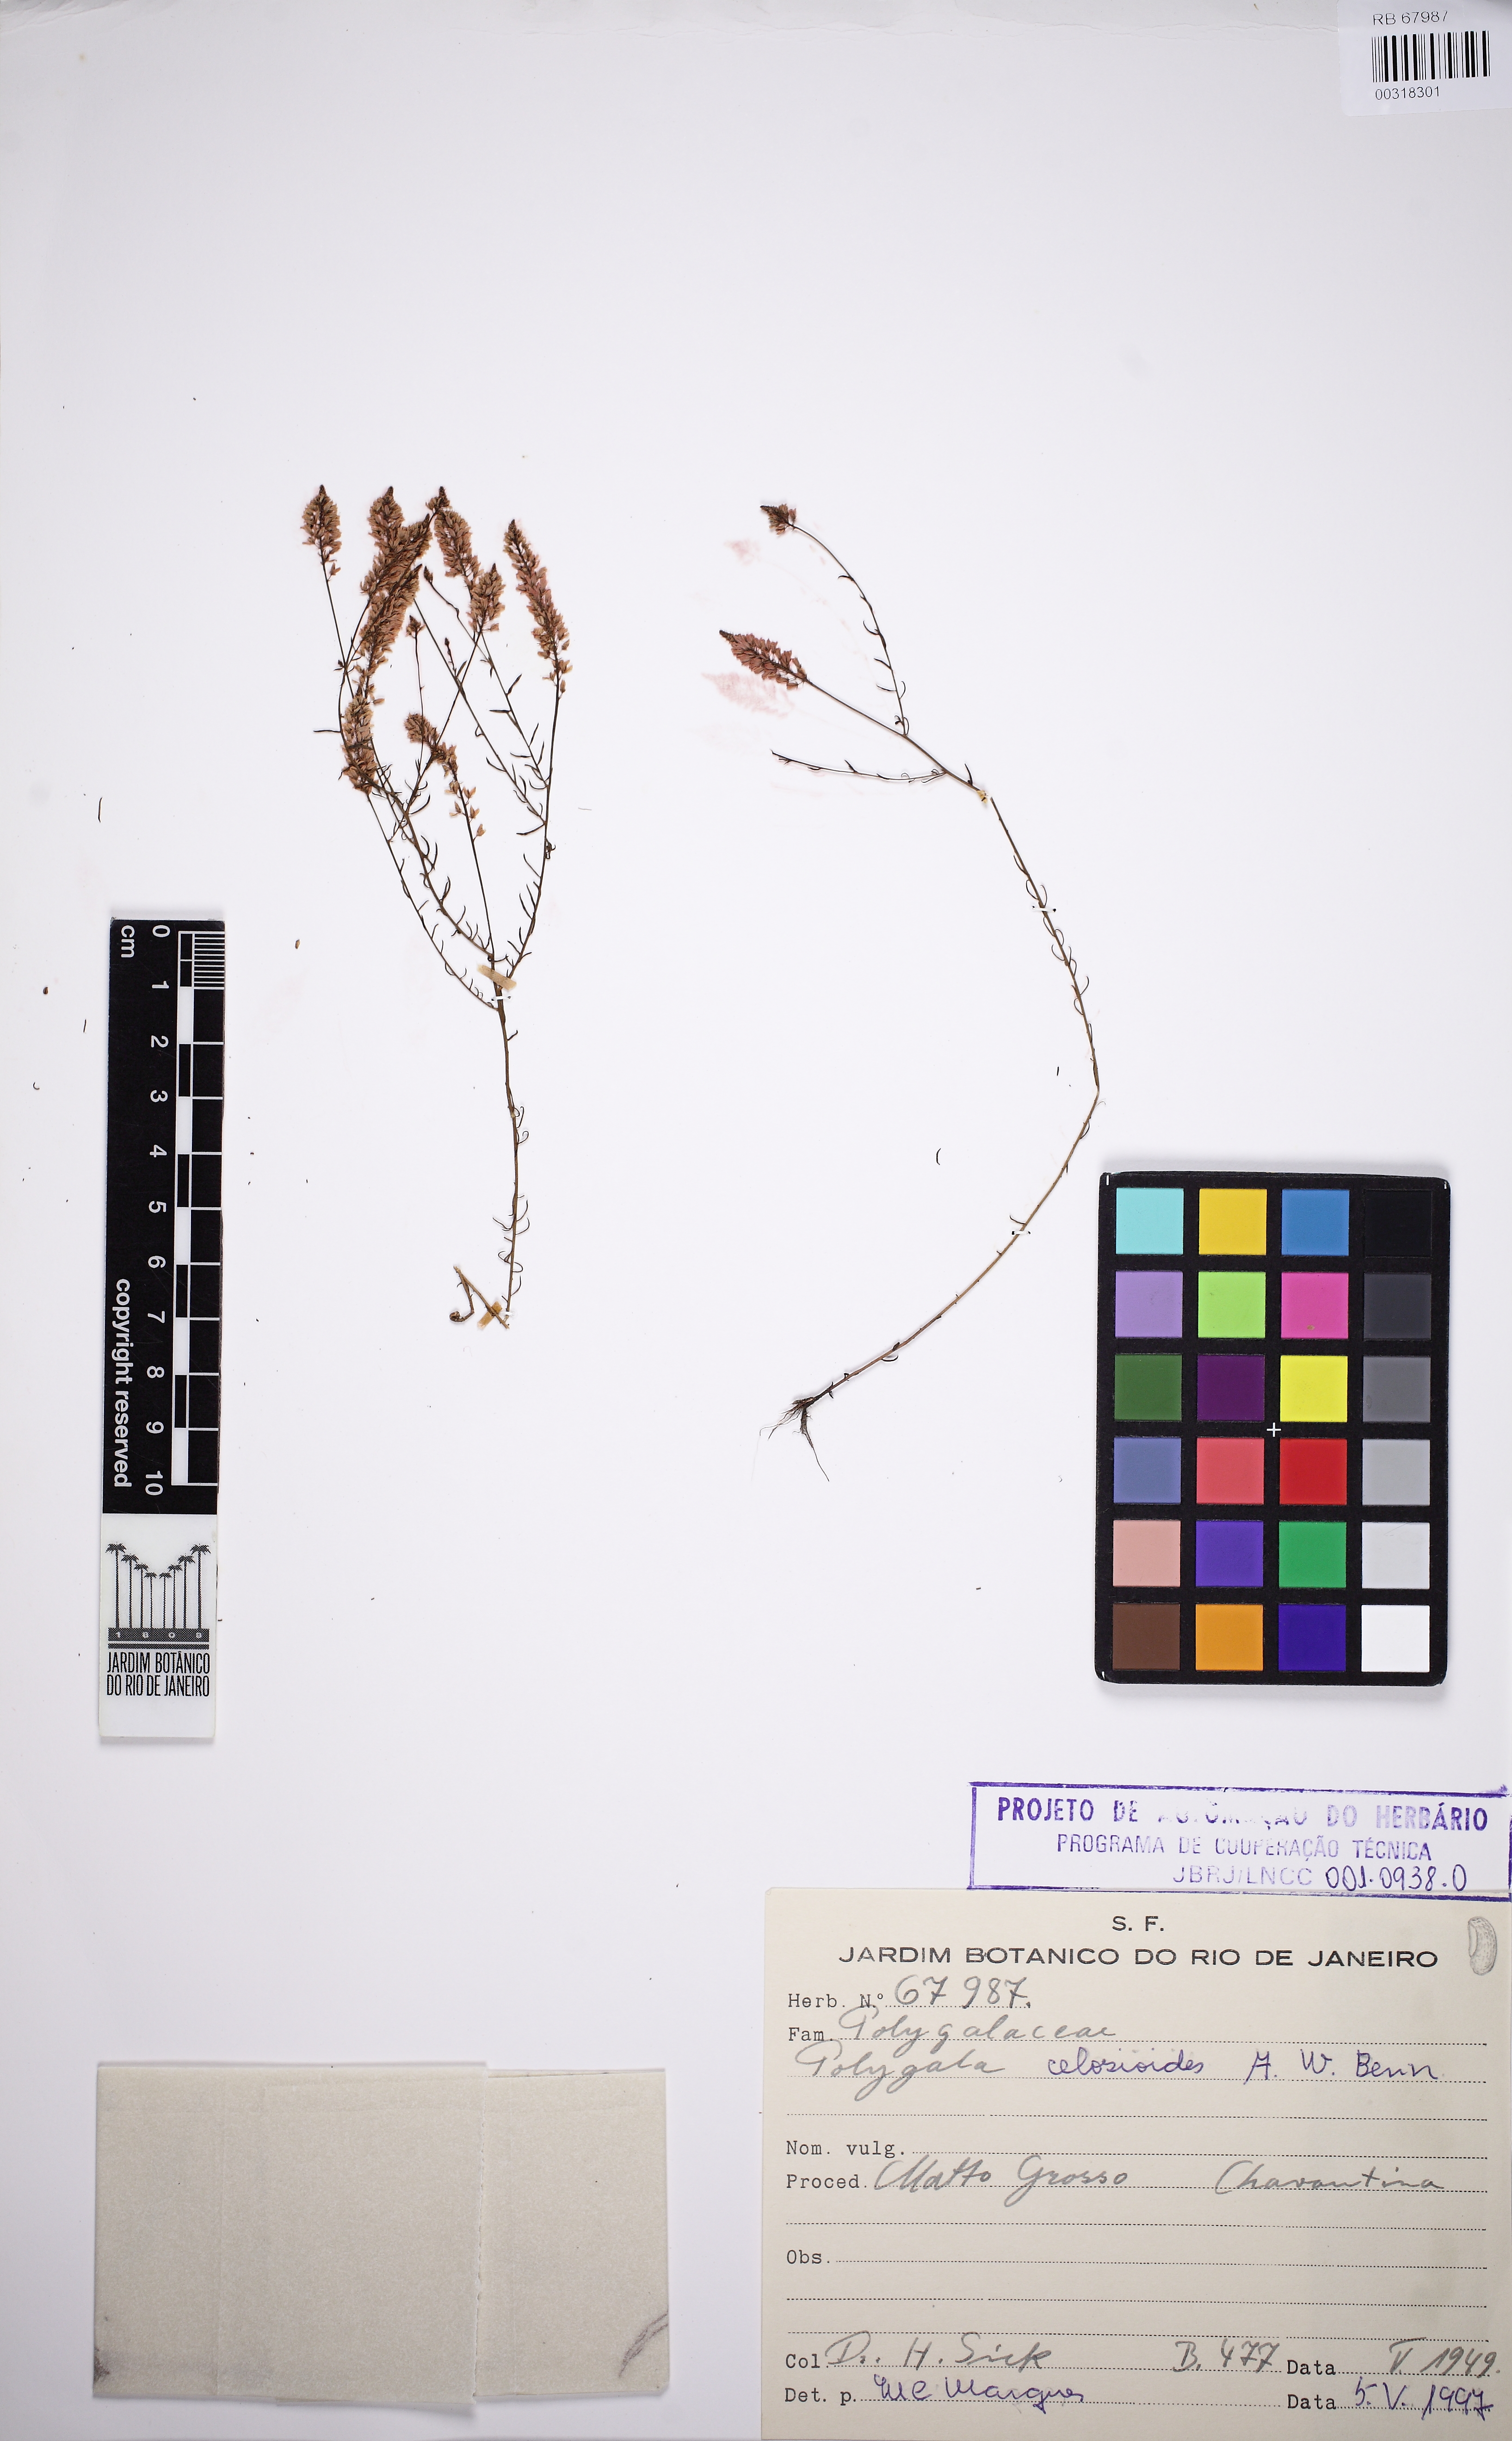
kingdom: Plantae
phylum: Tracheophyta
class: Magnoliopsida
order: Fabales
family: Polygalaceae
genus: Polygala
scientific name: Polygala celosioides
